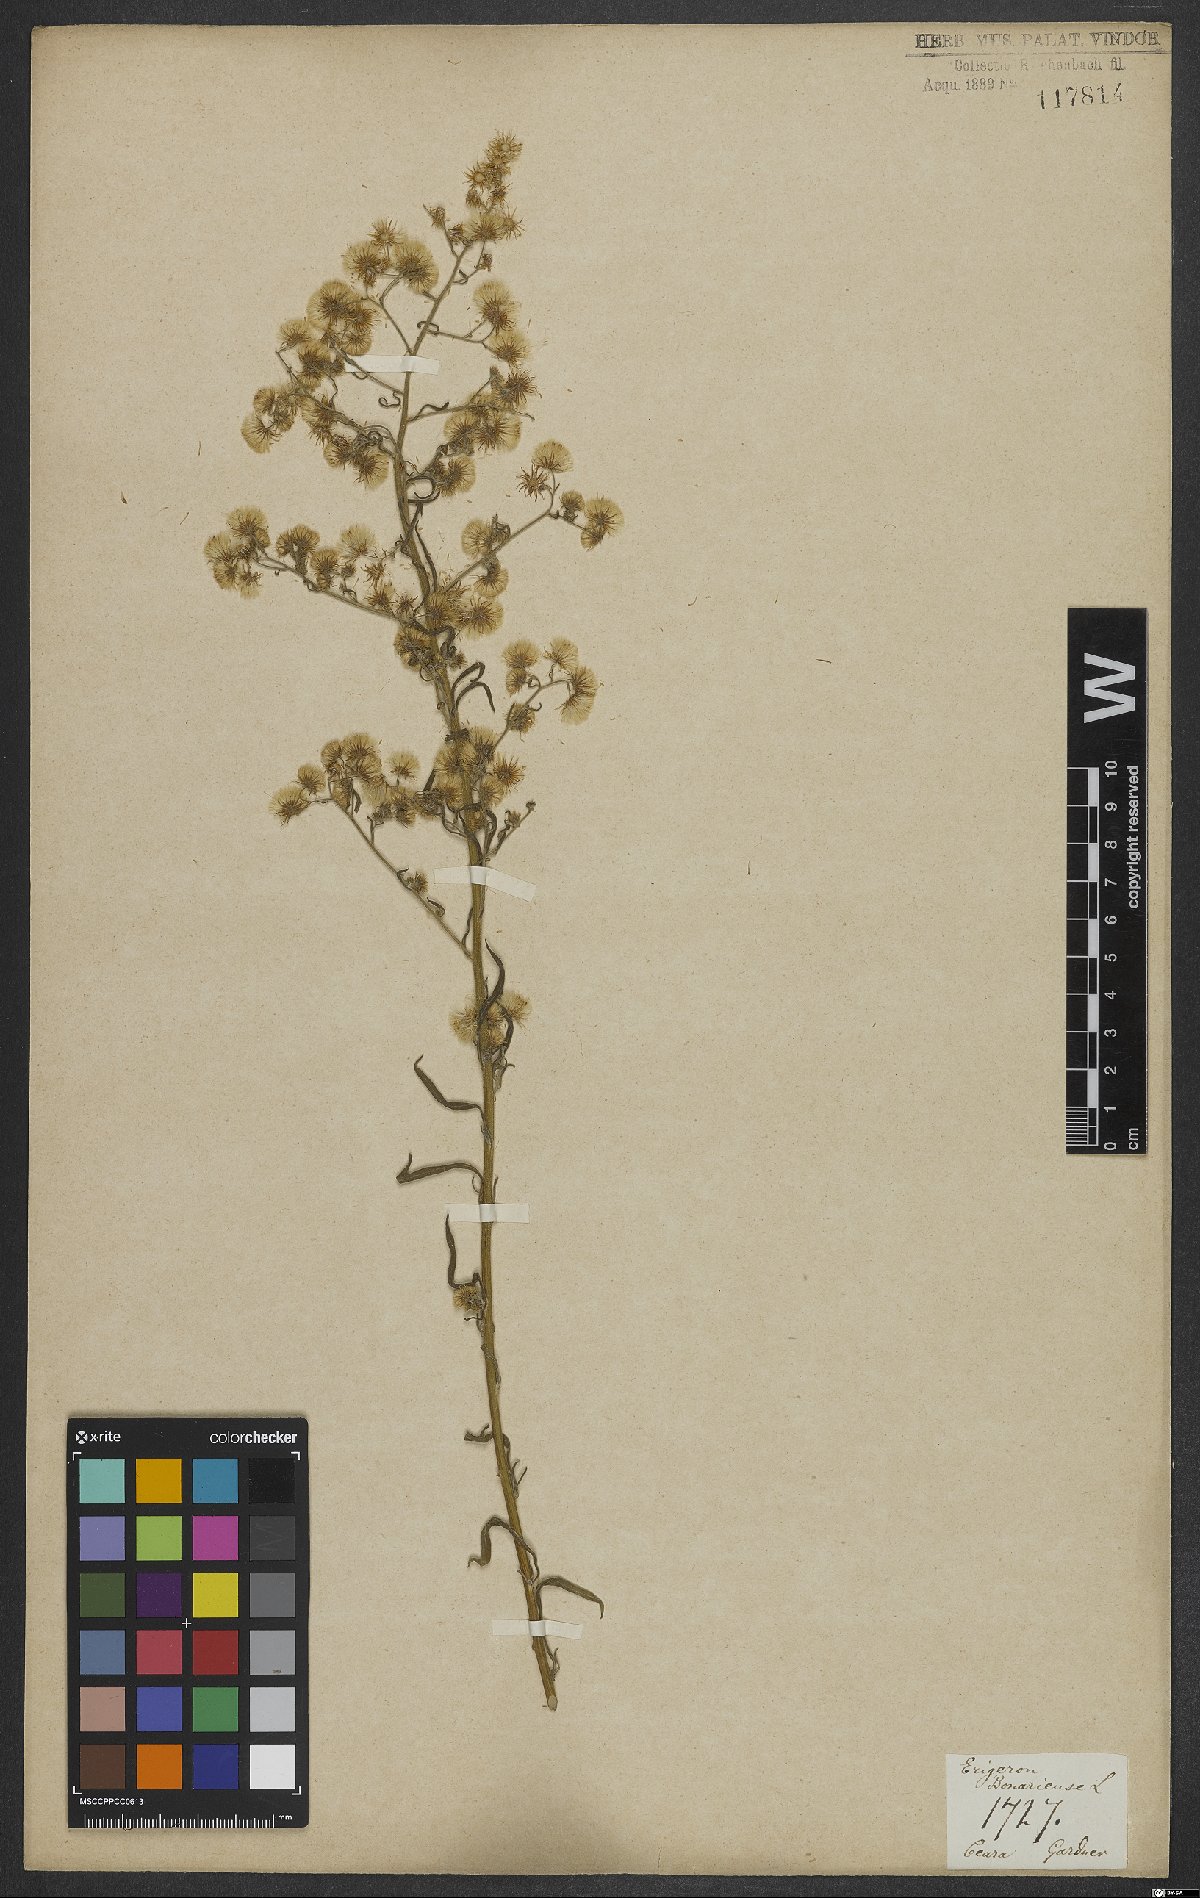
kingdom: Plantae
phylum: Tracheophyta
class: Magnoliopsida
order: Asterales
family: Asteraceae
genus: Erigeron
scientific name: Erigeron bonariensis
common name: Argentine fleabane
